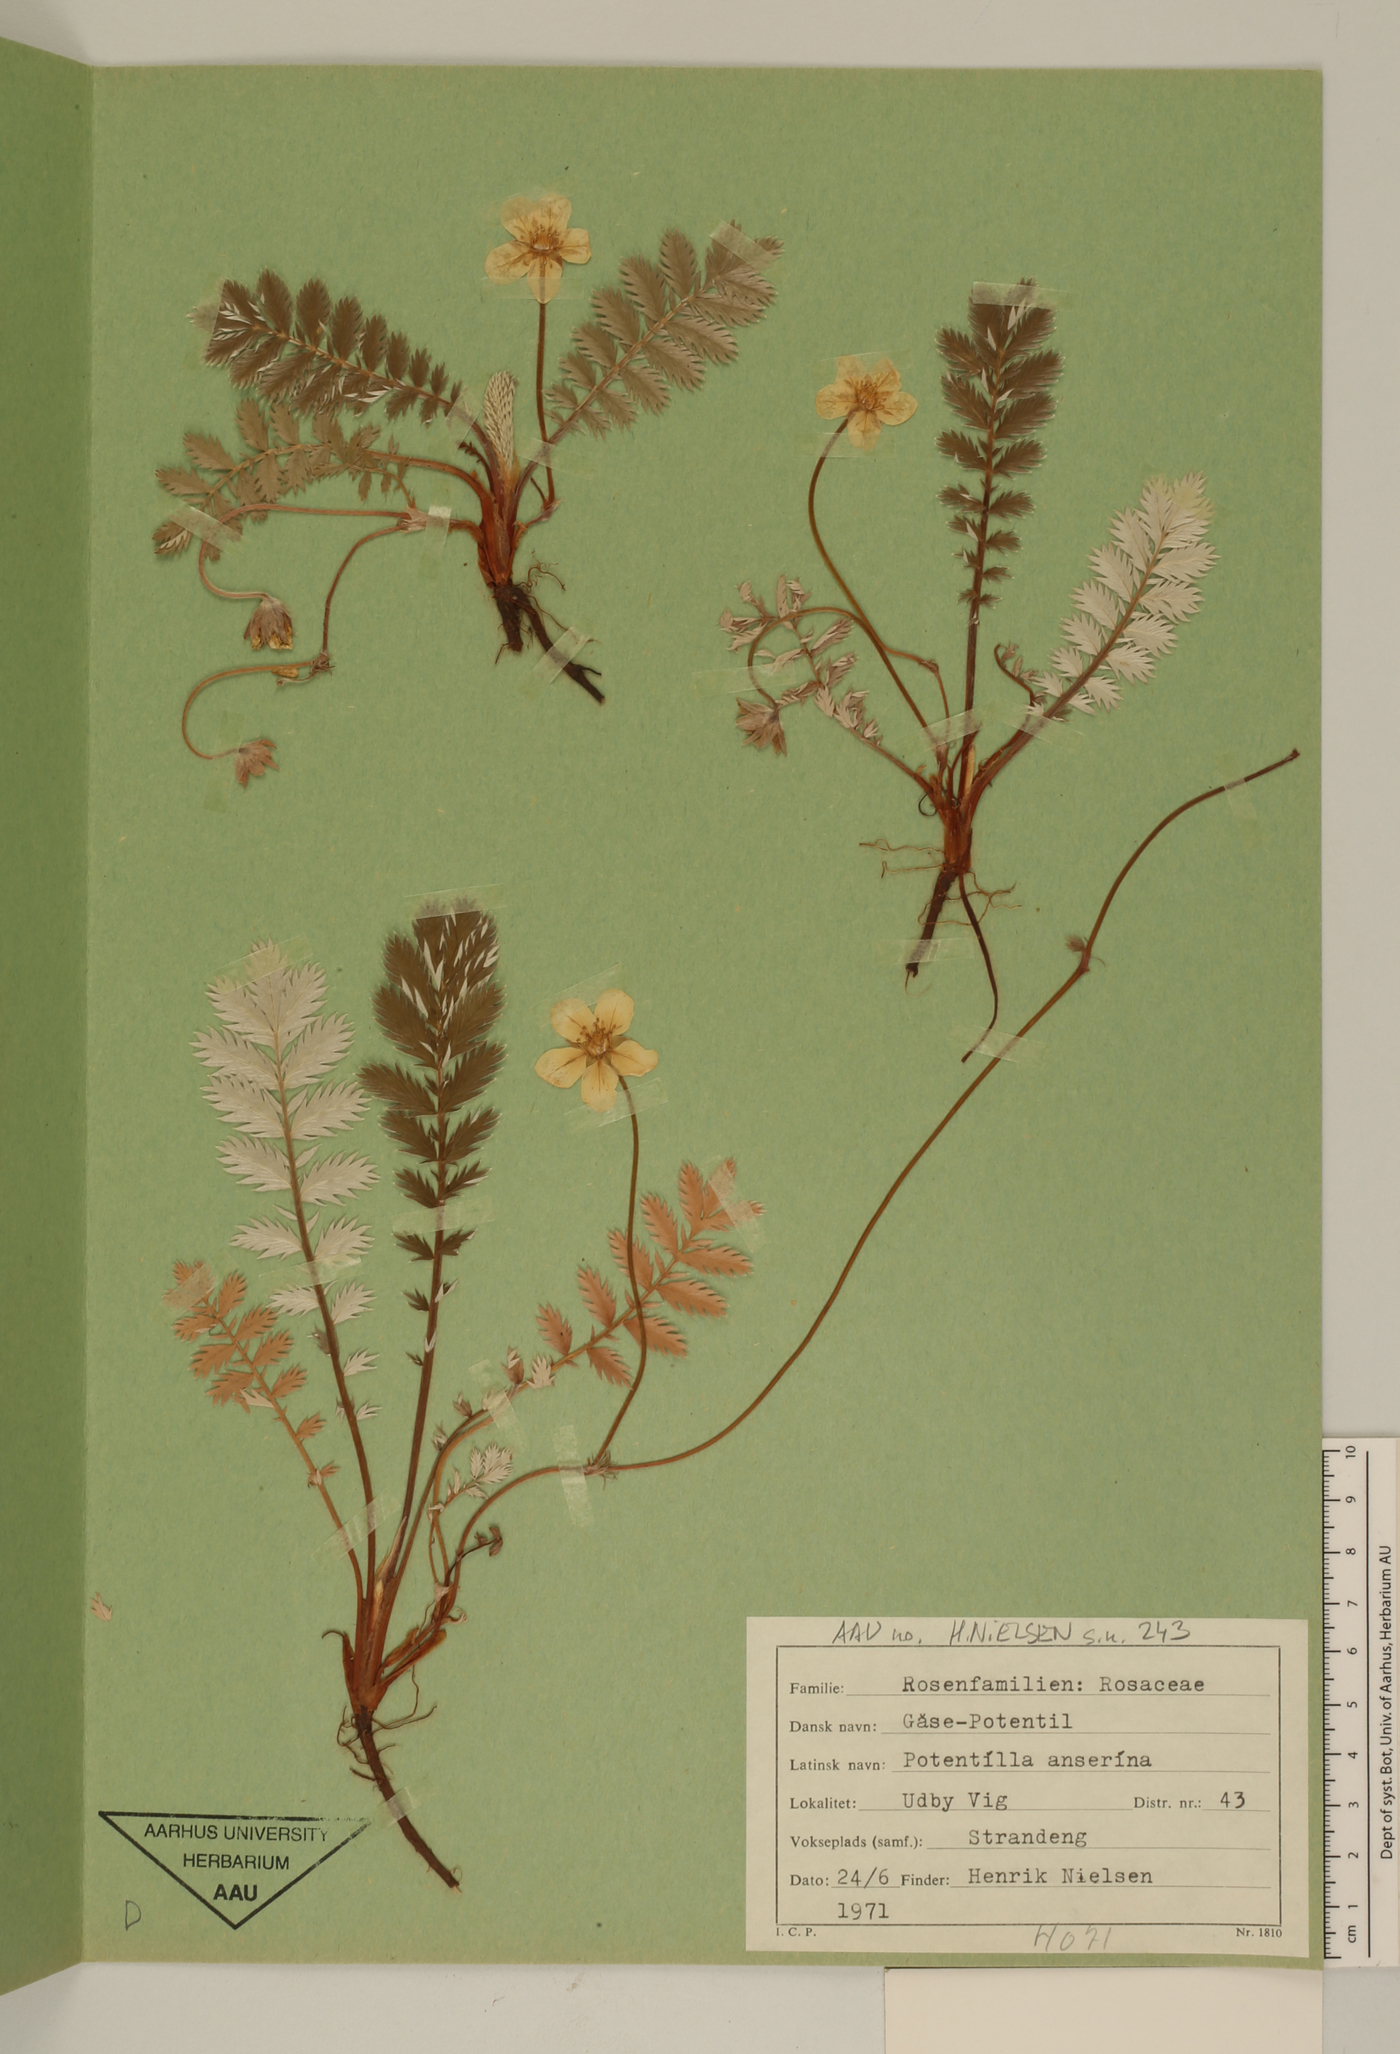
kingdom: Plantae
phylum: Tracheophyta
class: Magnoliopsida
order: Rosales
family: Rosaceae
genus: Argentina
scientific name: Argentina anserina
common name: Common silverweed
